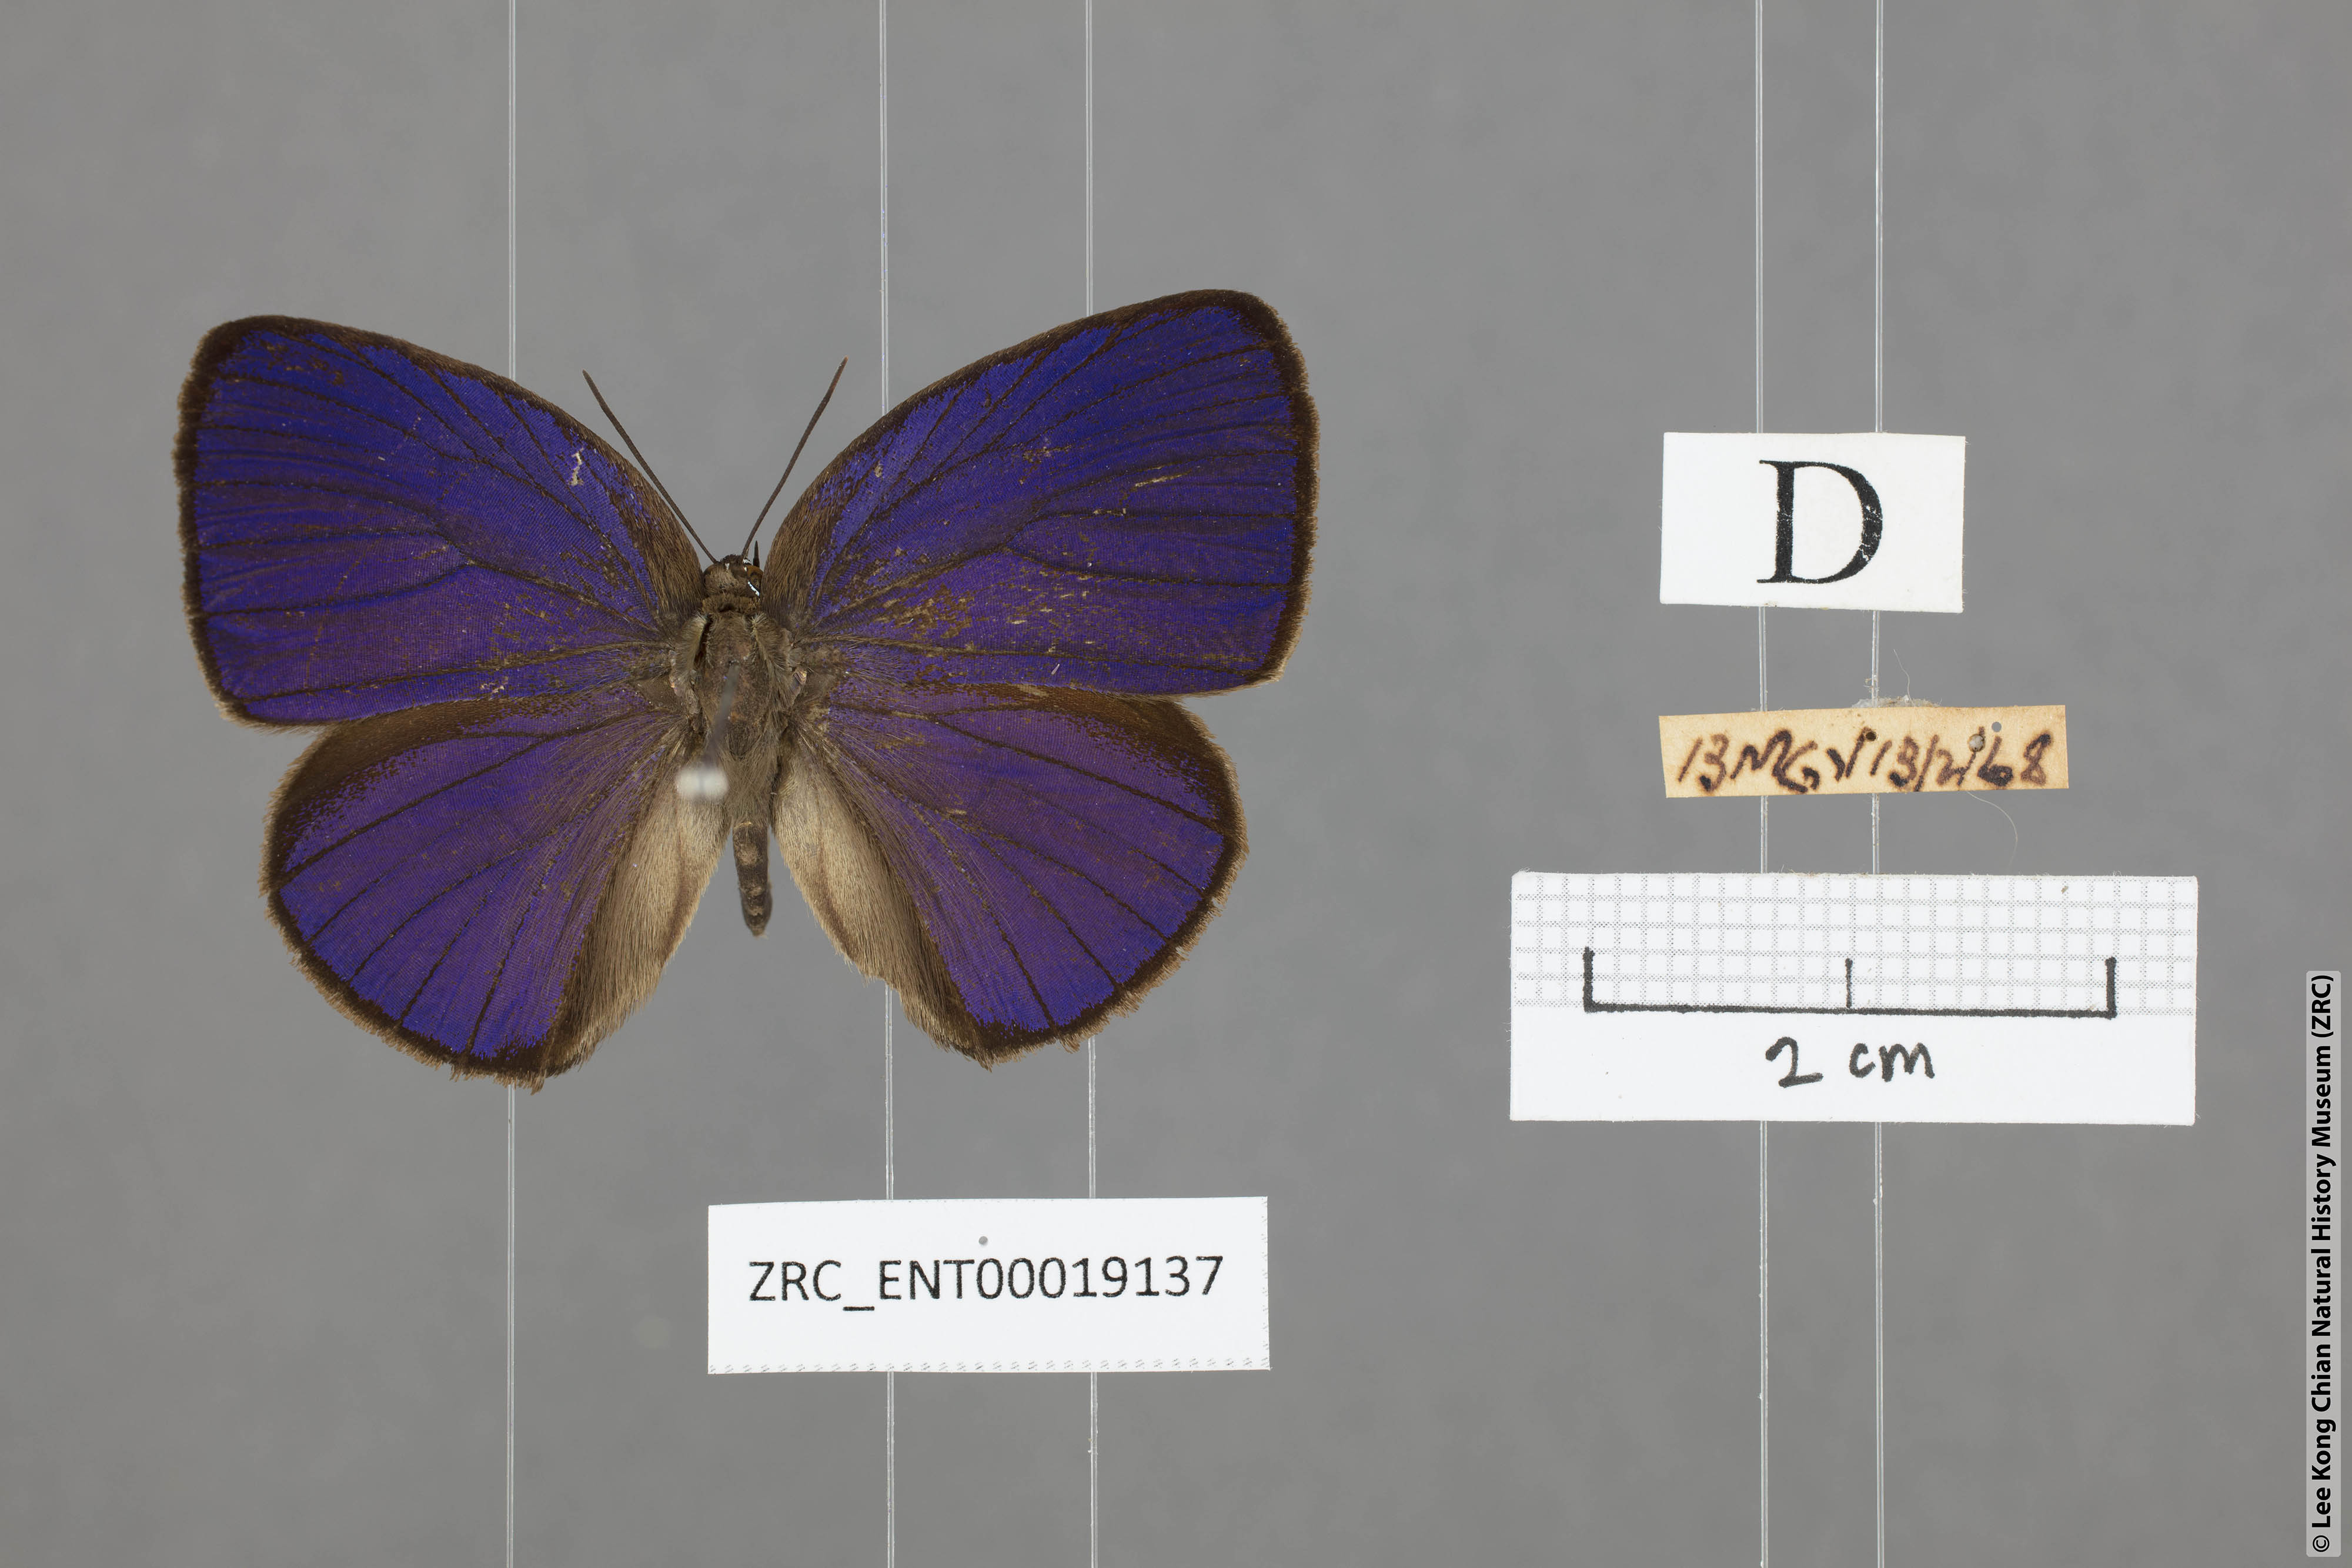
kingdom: Animalia
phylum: Arthropoda
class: Insecta
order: Lepidoptera
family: Lycaenidae
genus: Arhopala
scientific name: Arhopala amphimuta
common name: Broad yellow oakblue
